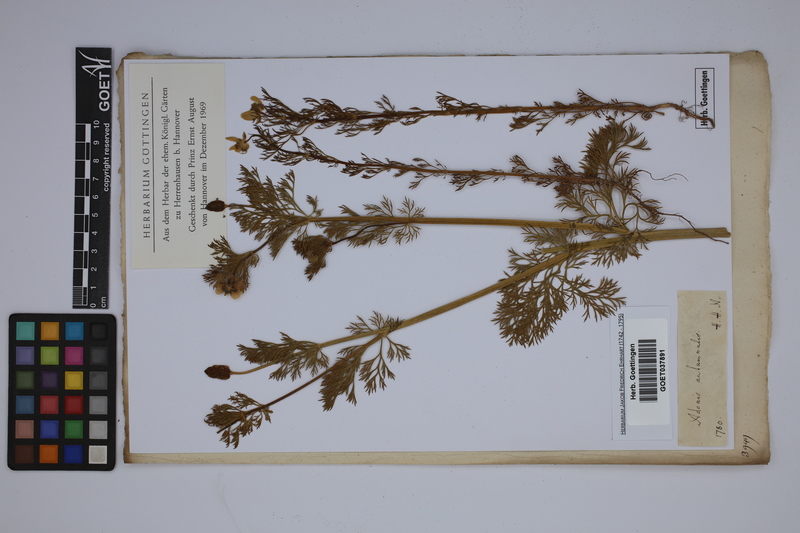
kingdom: Plantae
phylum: Tracheophyta
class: Magnoliopsida
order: Ranunculales
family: Ranunculaceae
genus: Adonis
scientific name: Adonis annua
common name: Pheasant's-eye
